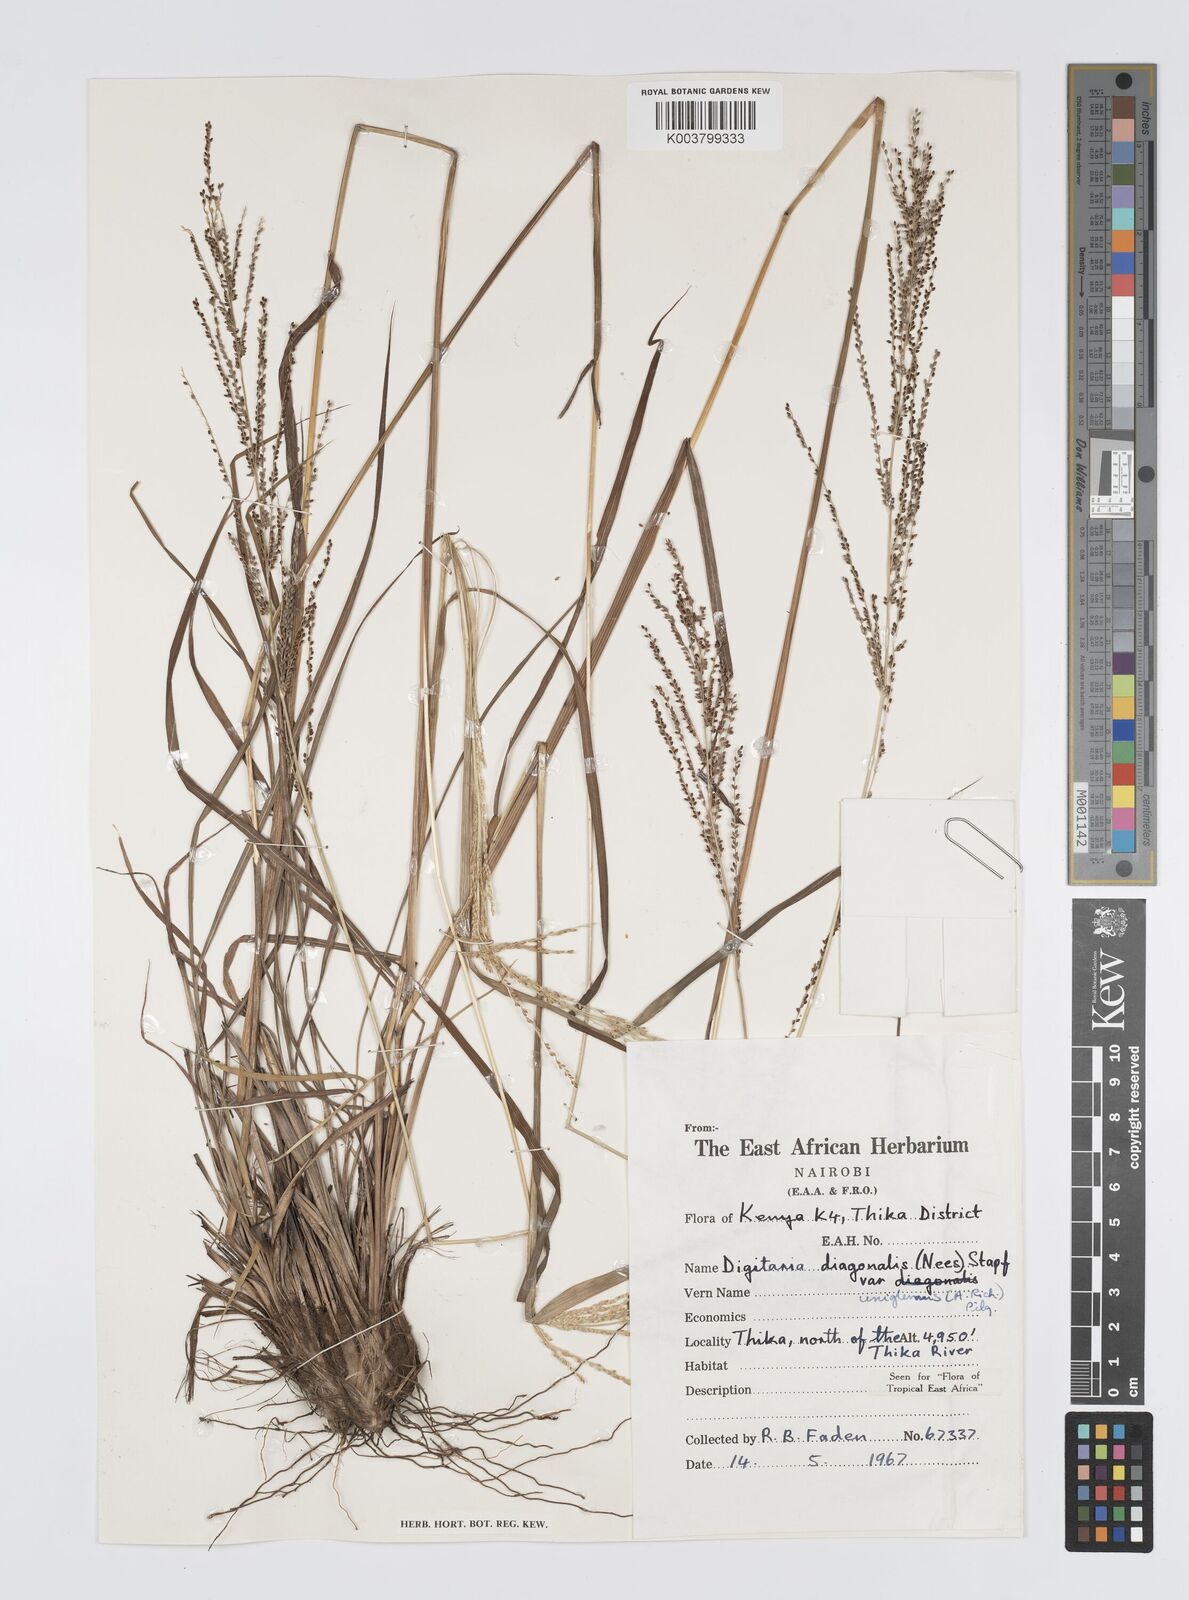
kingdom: Plantae
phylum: Tracheophyta
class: Liliopsida
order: Poales
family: Poaceae
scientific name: Poaceae
